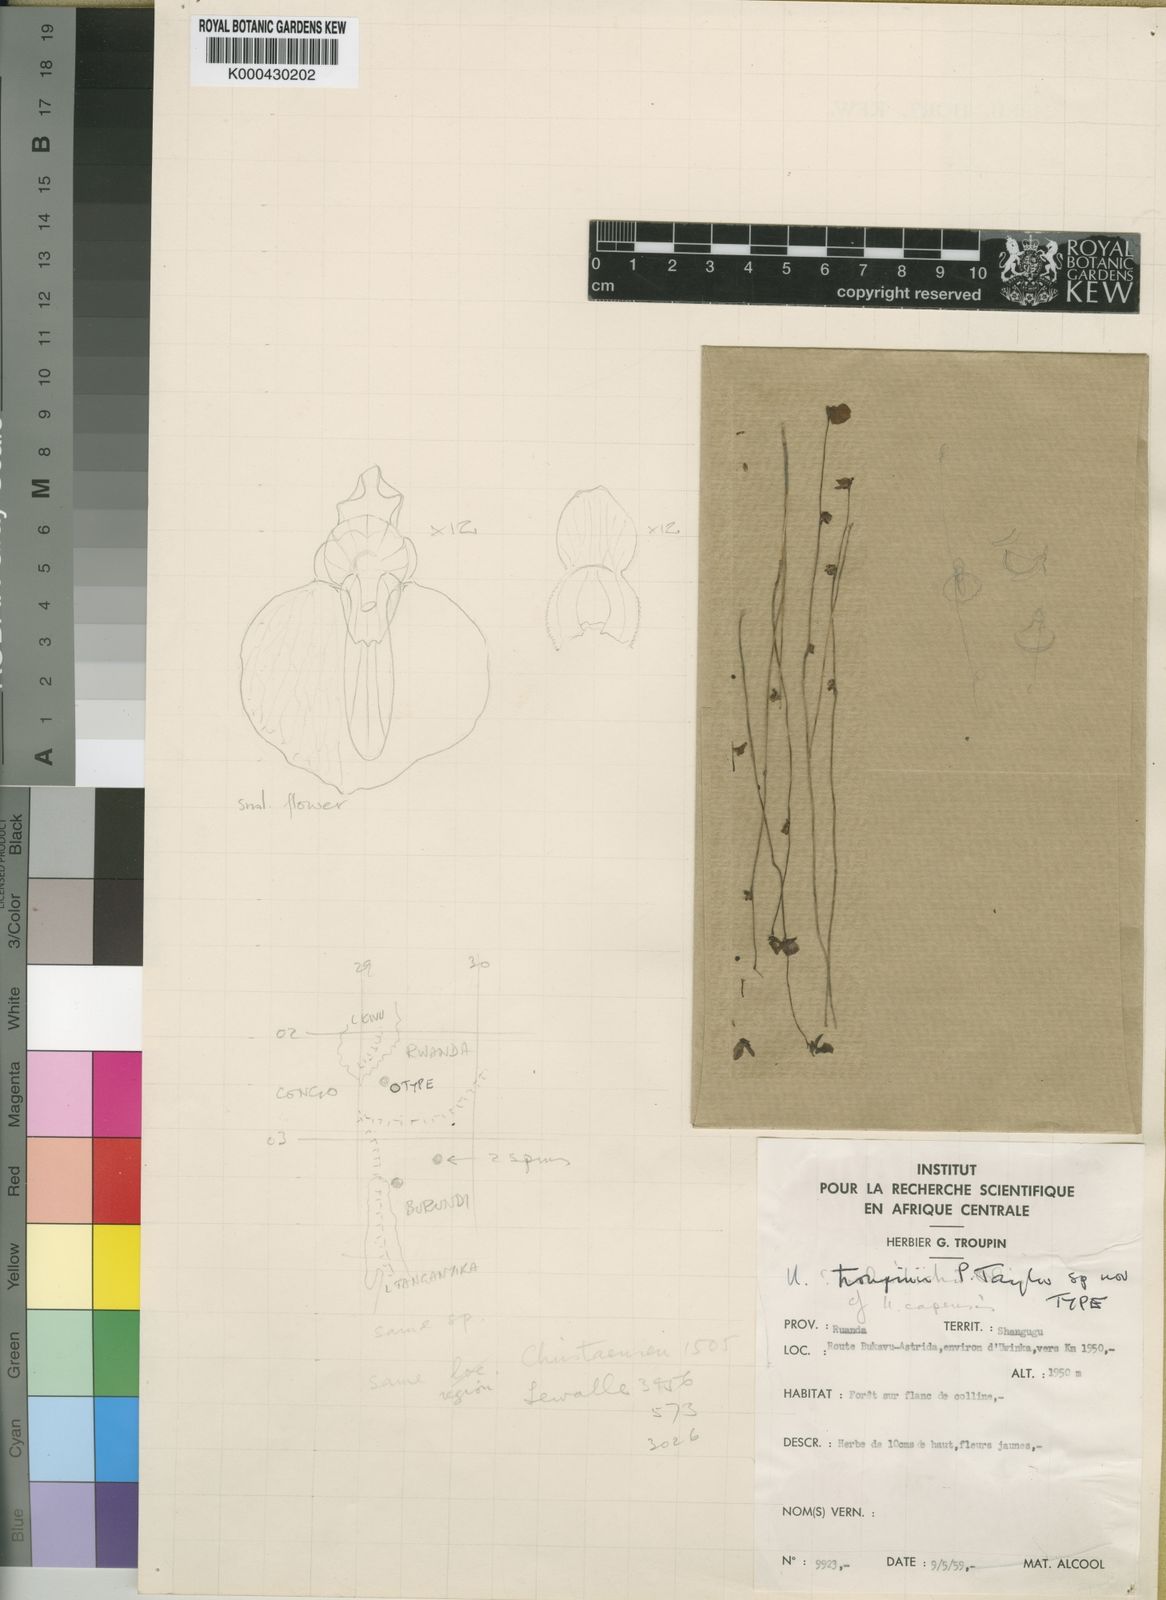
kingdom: Plantae
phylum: Tracheophyta
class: Magnoliopsida
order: Lamiales
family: Lentibulariaceae
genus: Utricularia
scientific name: Utricularia troupinii
